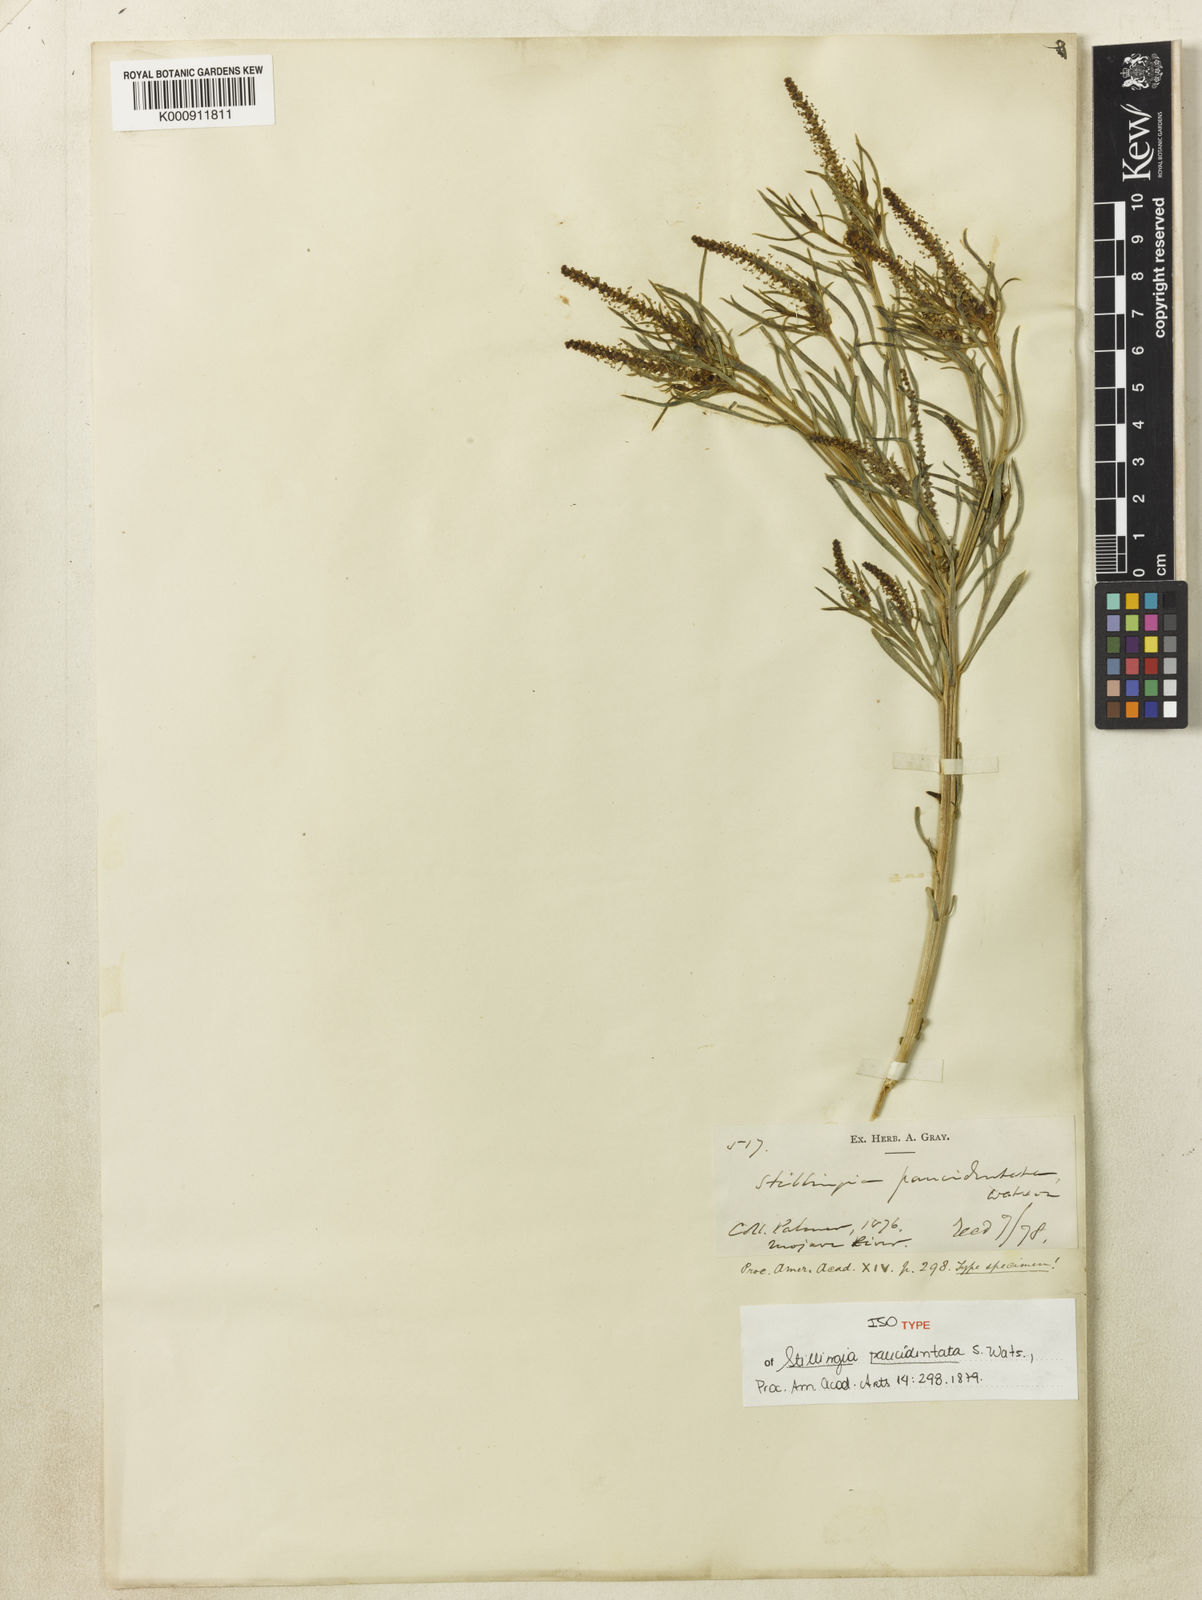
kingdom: Plantae
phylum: Tracheophyta
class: Magnoliopsida
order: Malpighiales
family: Euphorbiaceae
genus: Stillingia
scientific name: Stillingia paucidentata
